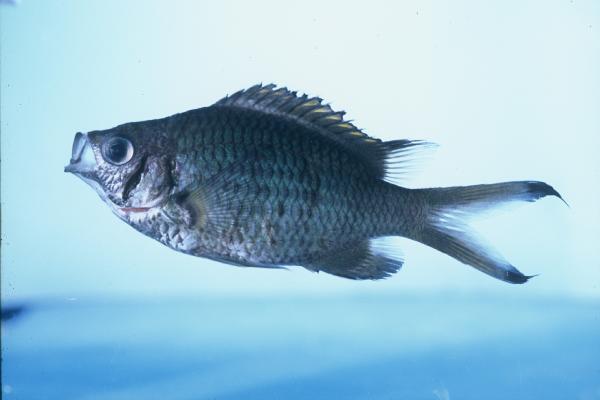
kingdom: Animalia
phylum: Chordata
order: Perciformes
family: Pomacentridae
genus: Chromis
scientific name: Chromis weberi
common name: Weber's chromis
